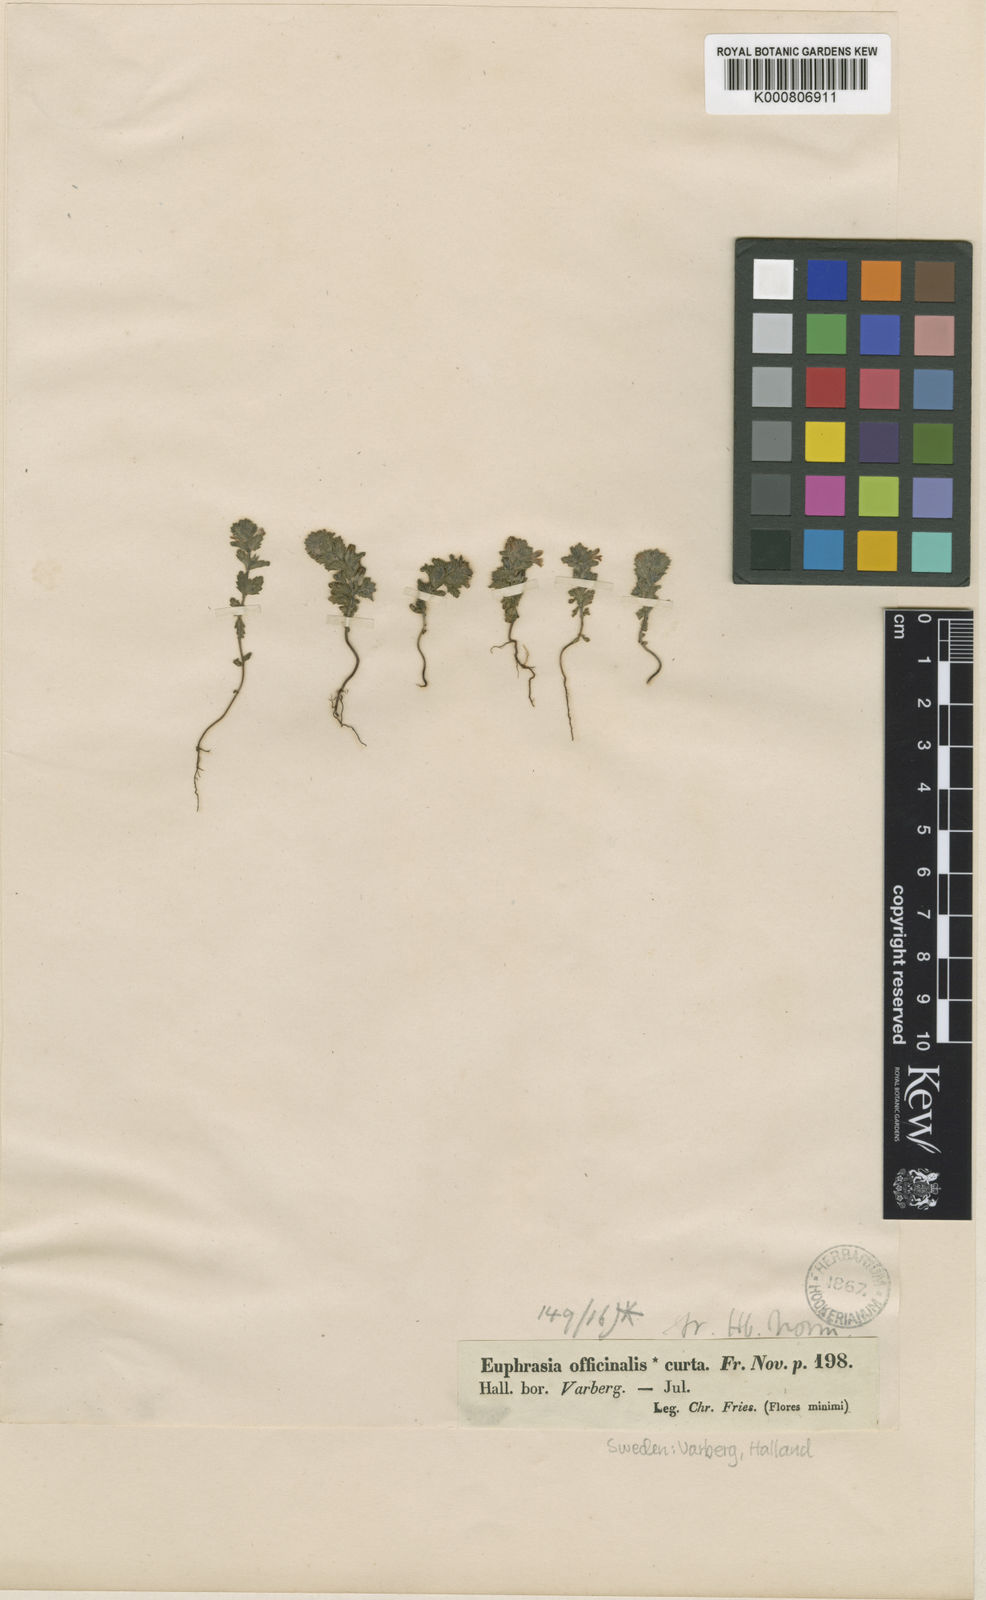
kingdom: Plantae
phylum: Tracheophyta
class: Magnoliopsida
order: Lamiales
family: Orobanchaceae
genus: Euphrasia
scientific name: Euphrasia nemorosa
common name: Common eyebright
